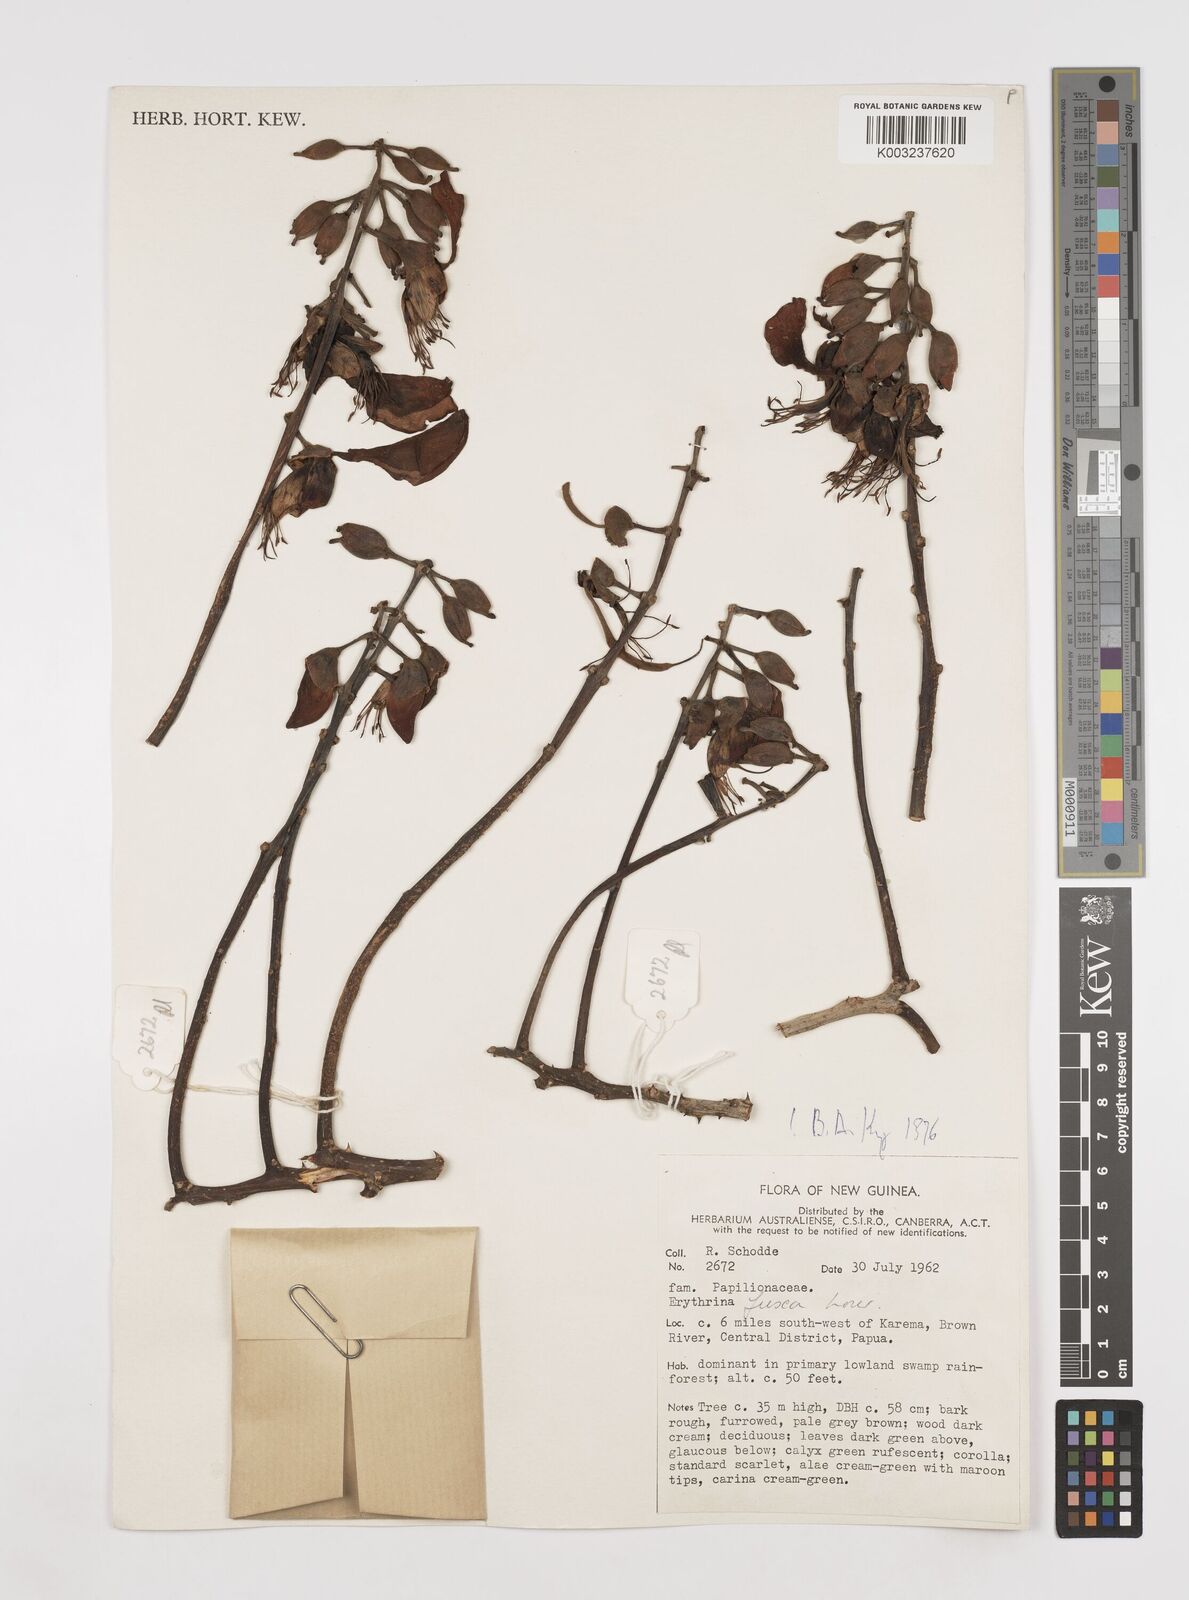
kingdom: Plantae
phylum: Tracheophyta
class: Magnoliopsida
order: Fabales
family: Fabaceae
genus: Erythrina
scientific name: Erythrina fusca
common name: Coral-bean
